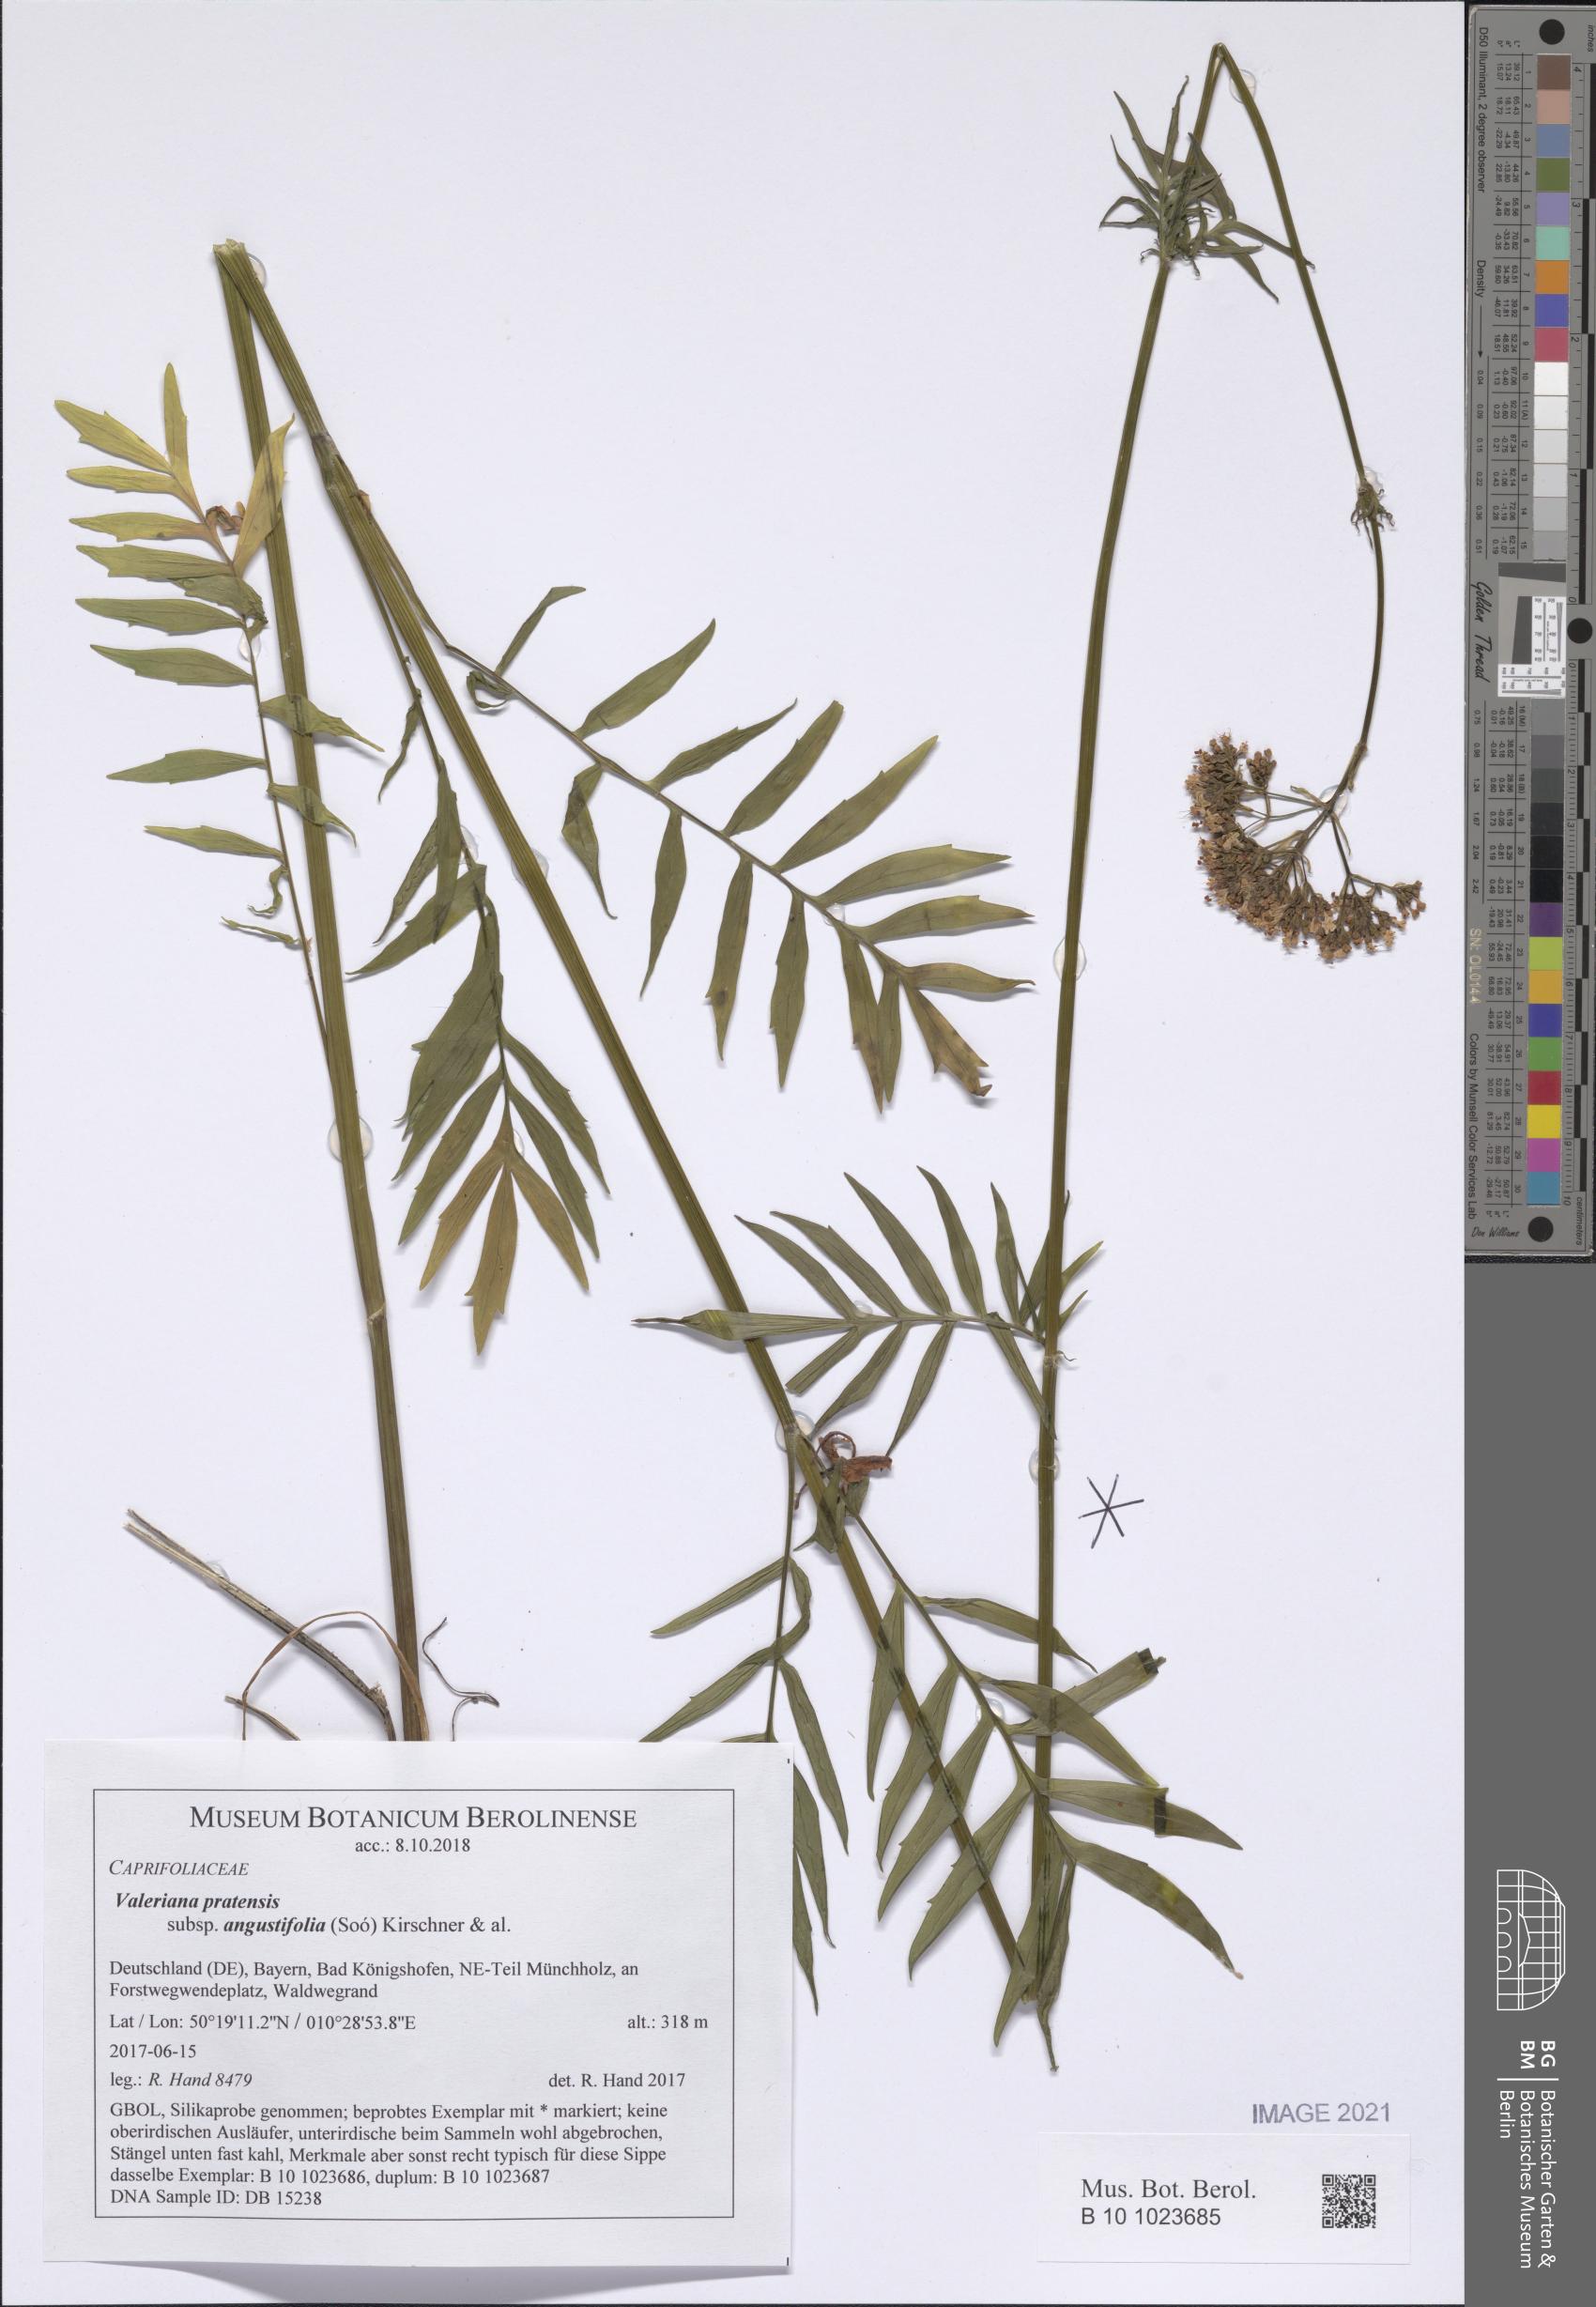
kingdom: Plantae
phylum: Tracheophyta
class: Magnoliopsida
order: Dipsacales
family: Caprifoliaceae
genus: Valeriana
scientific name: Valeriana pratensis
